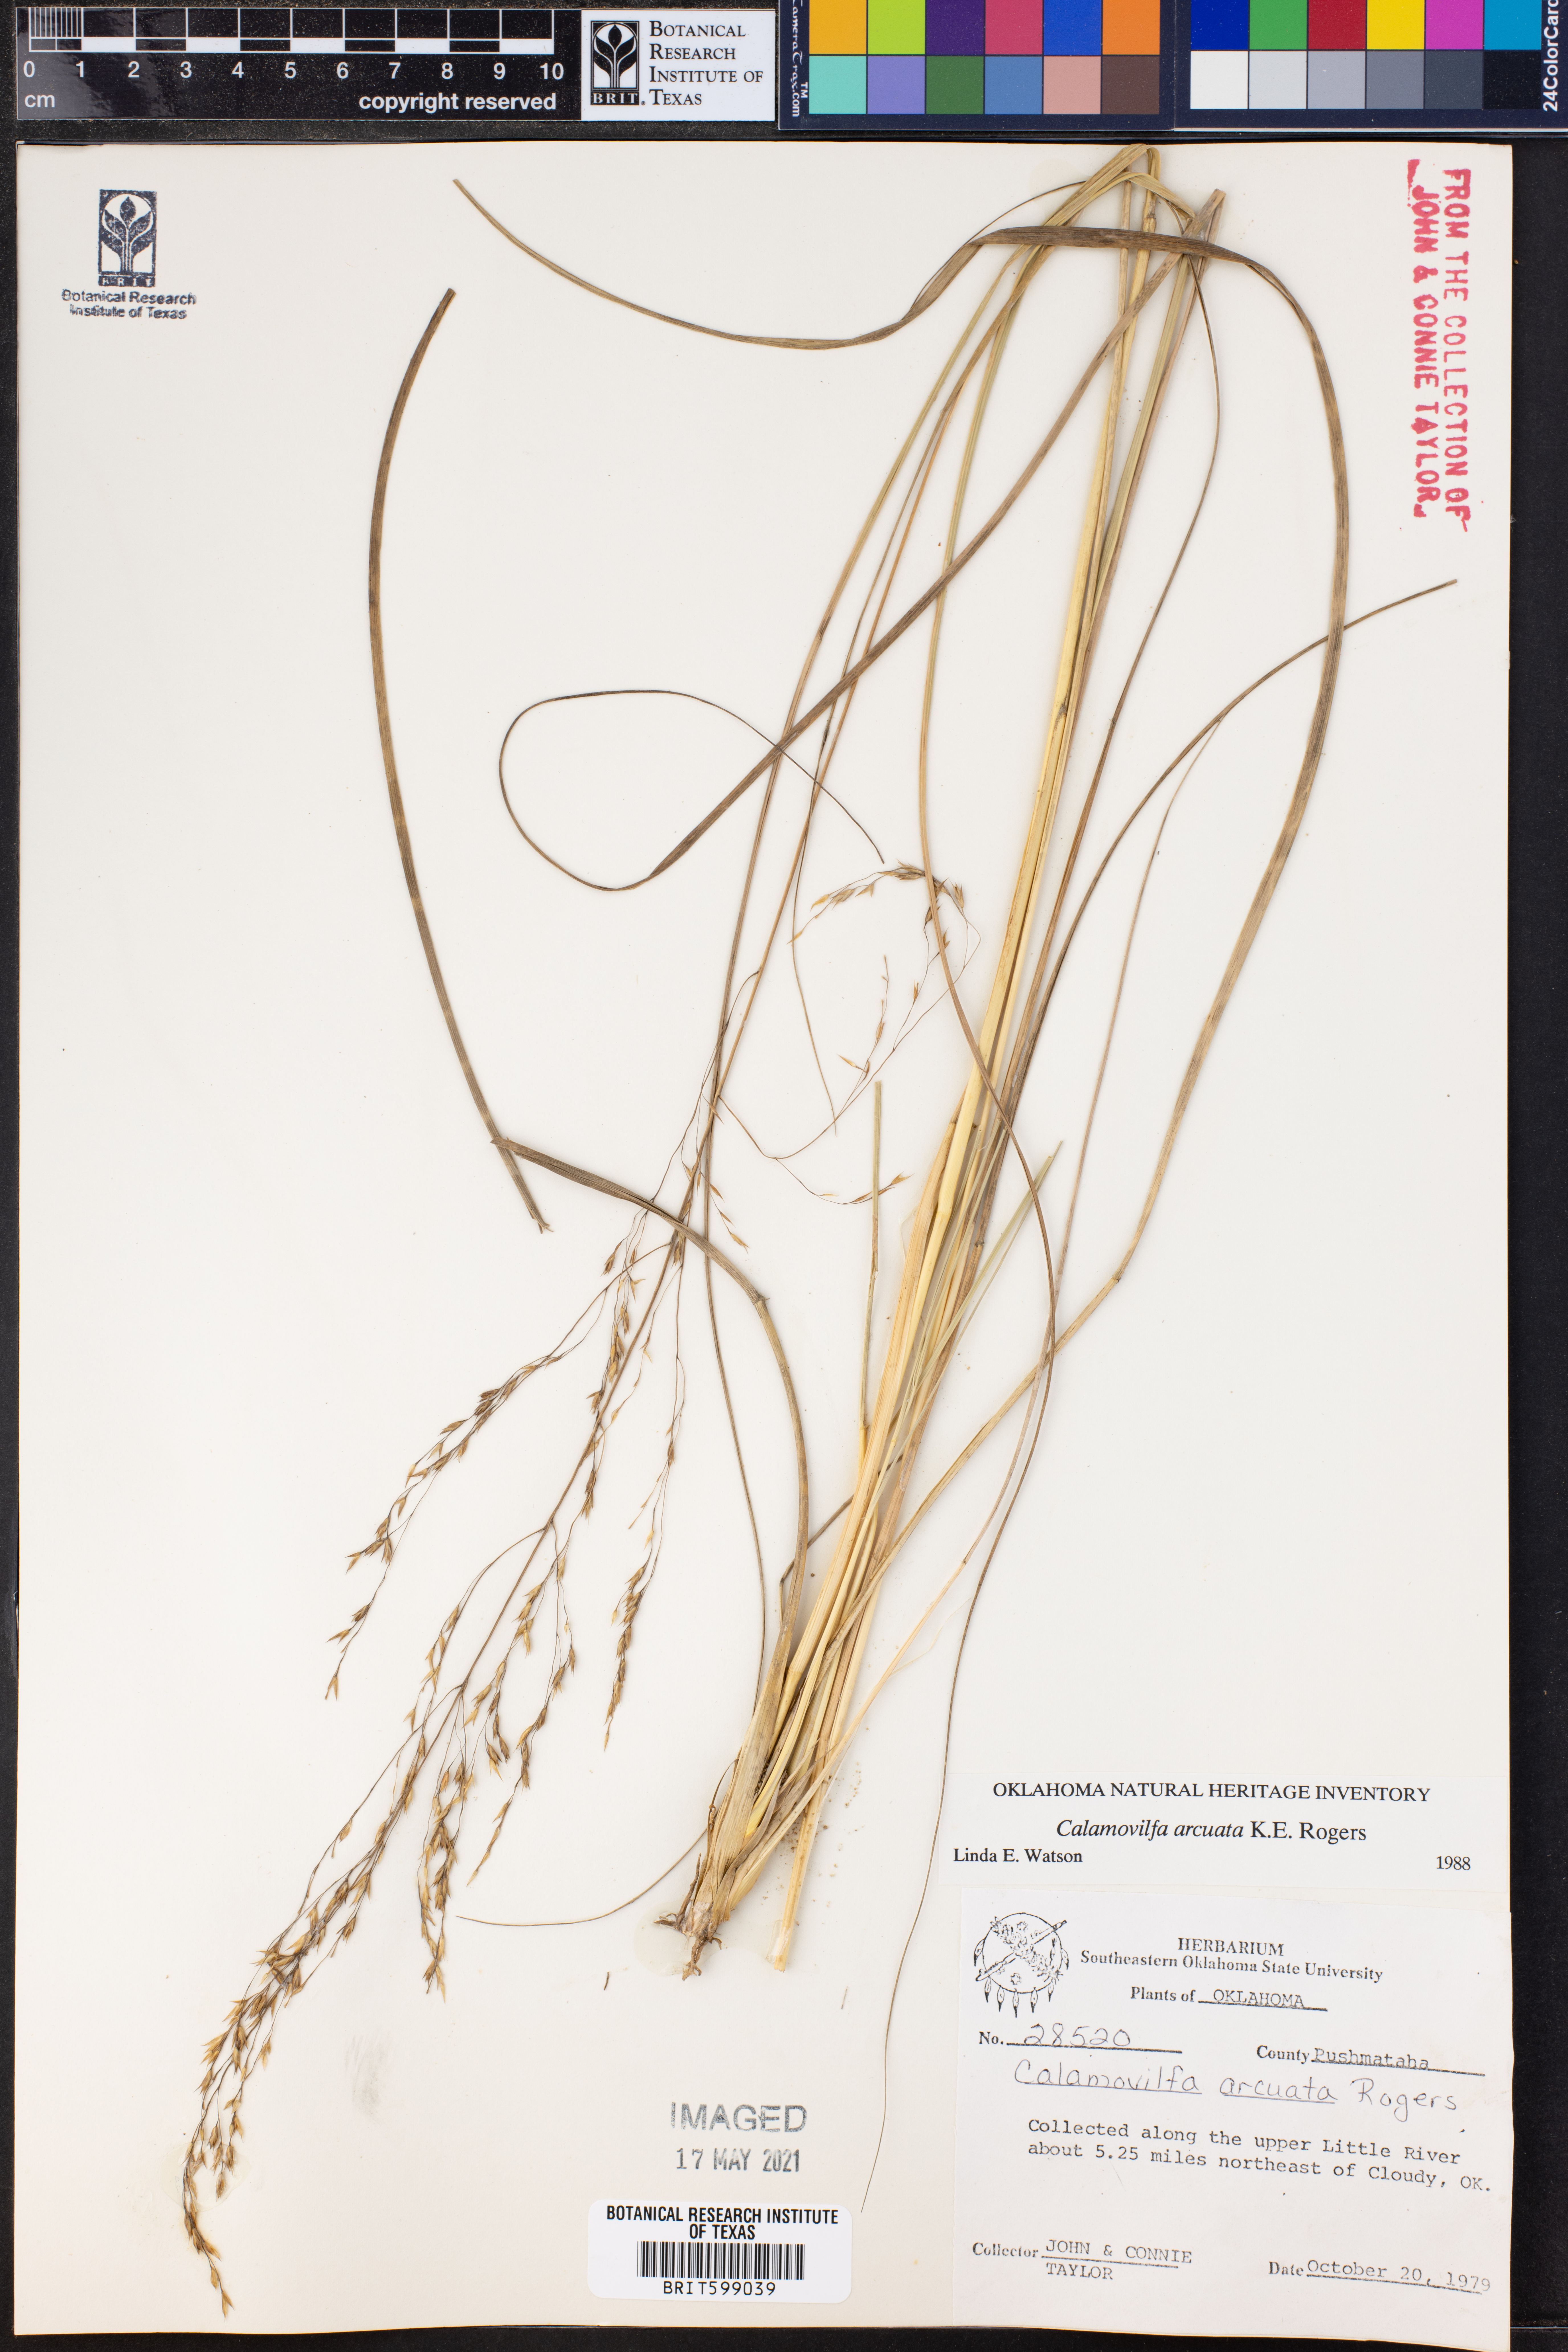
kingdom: Plantae
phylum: Tracheophyta
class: Liliopsida
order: Poales
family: Poaceae
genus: Sporobolus
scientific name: Sporobolus arcuatus
